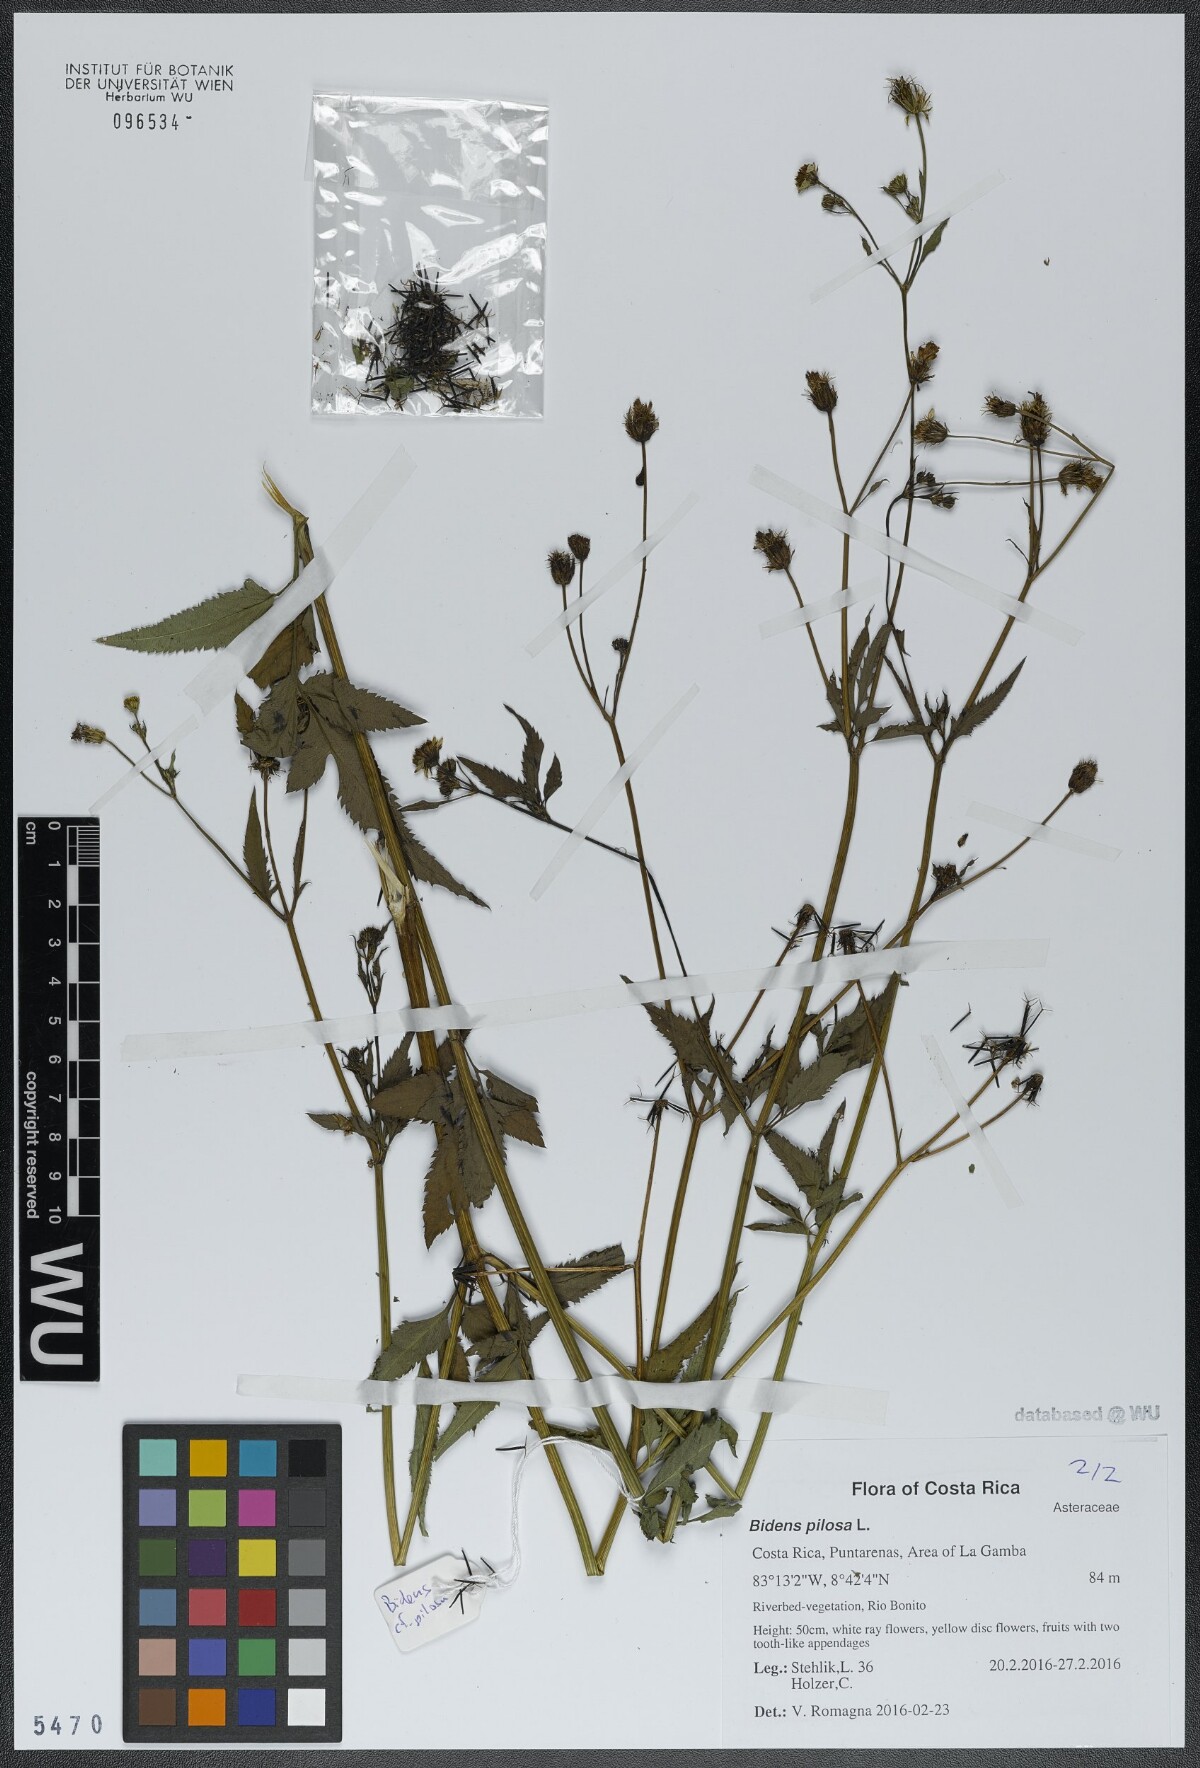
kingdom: Plantae
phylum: Tracheophyta
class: Magnoliopsida
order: Asterales
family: Asteraceae
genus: Bidens
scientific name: Bidens pilosa
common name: Black-jack
